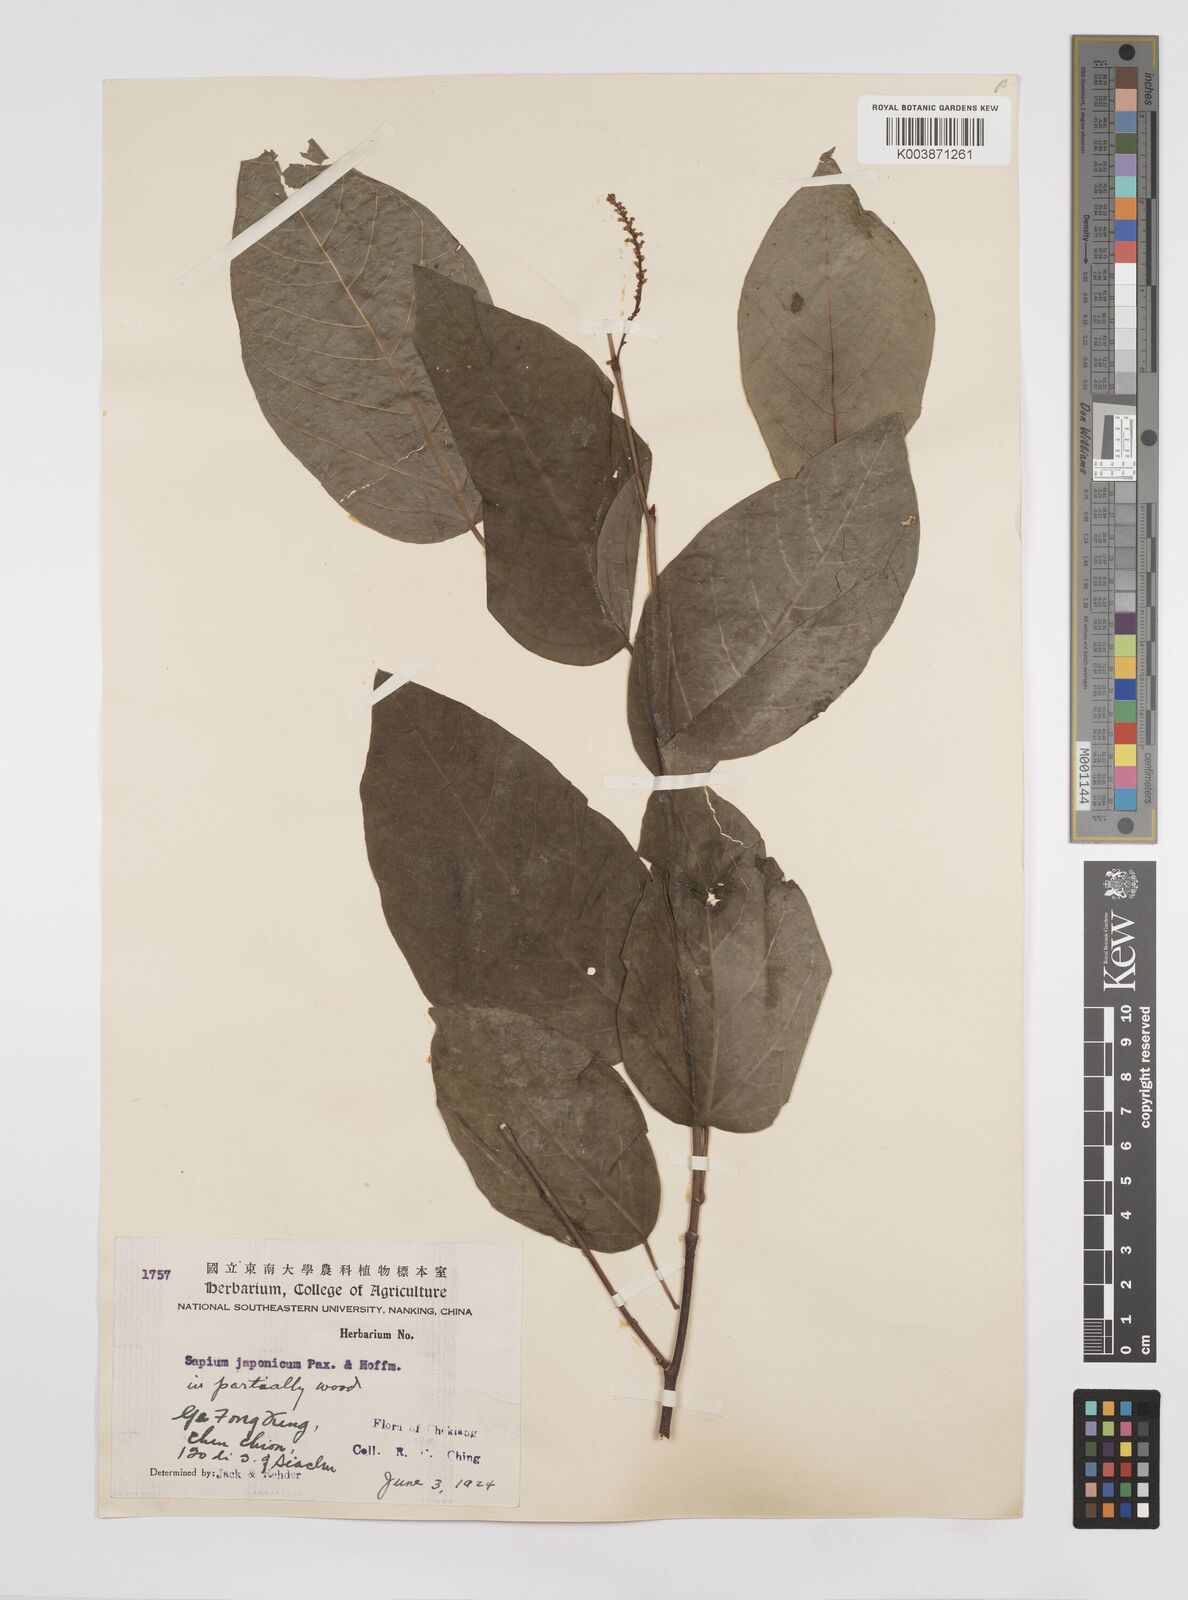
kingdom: Plantae
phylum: Tracheophyta
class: Magnoliopsida
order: Malpighiales
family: Euphorbiaceae
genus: Neoshirakia
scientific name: Neoshirakia japonica
